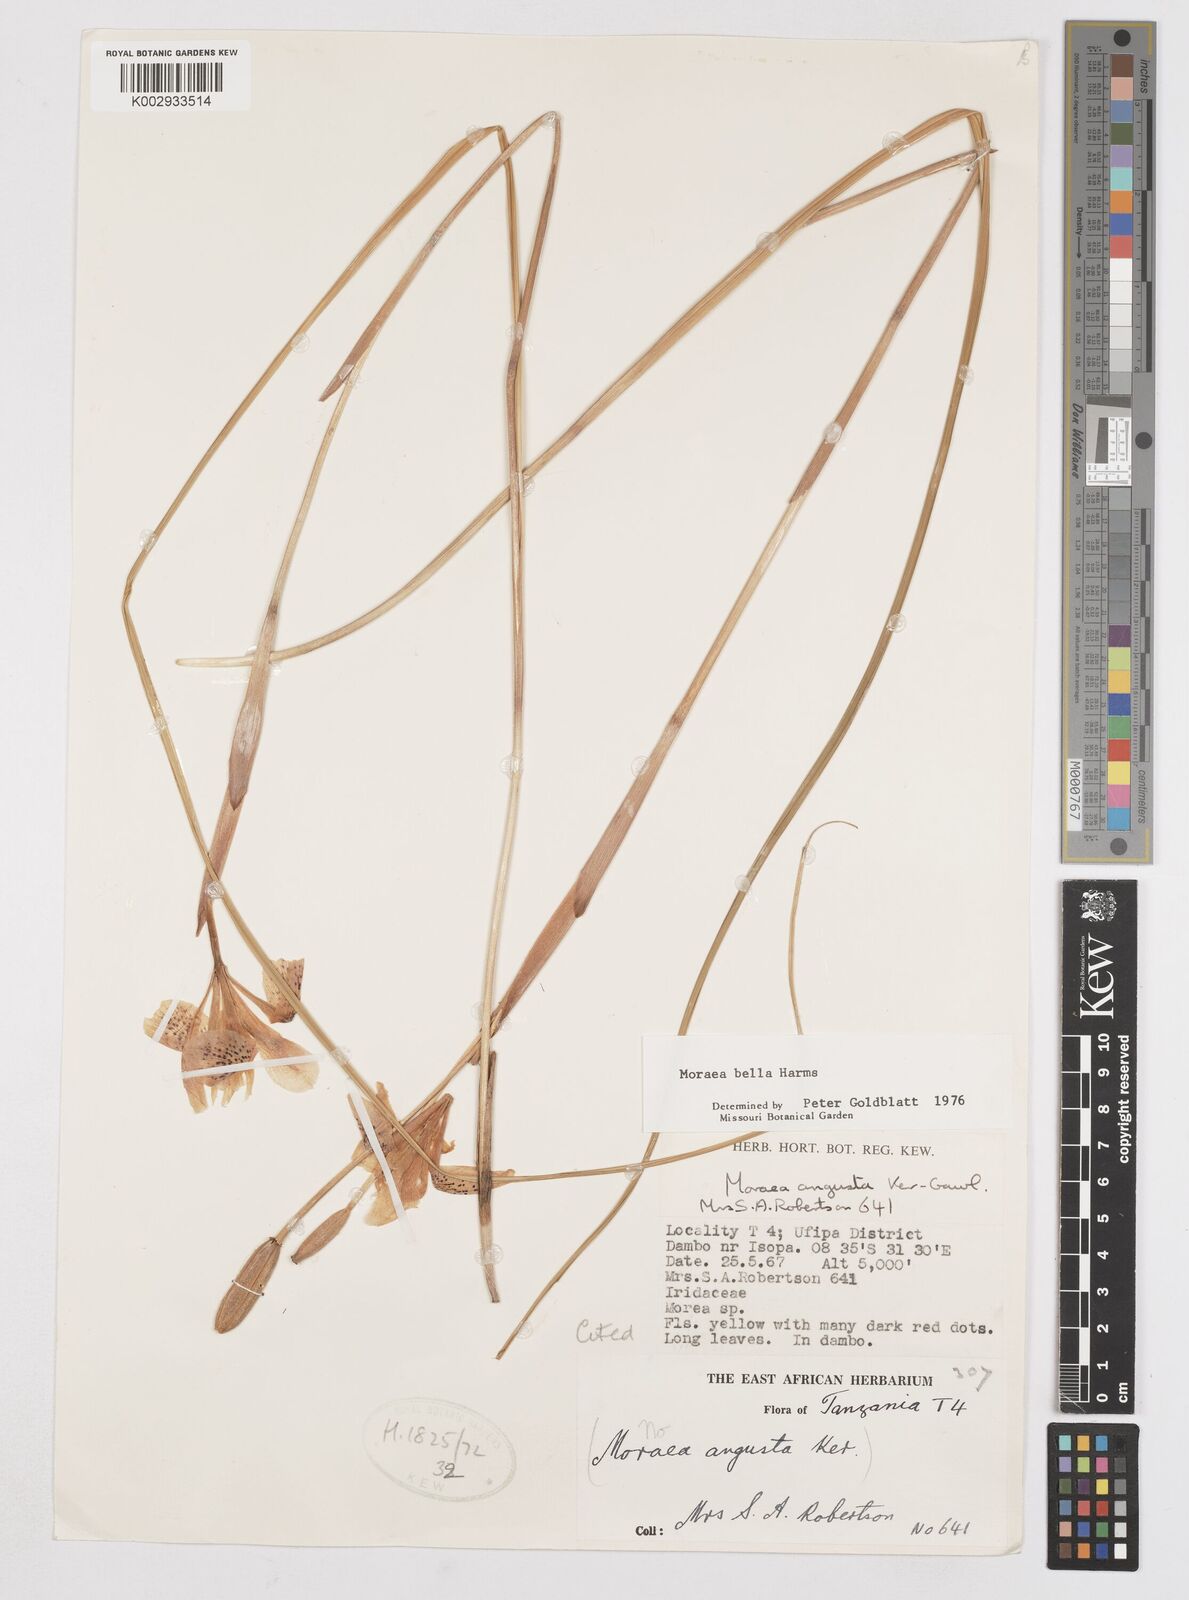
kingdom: Plantae
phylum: Tracheophyta
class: Liliopsida
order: Asparagales
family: Iridaceae
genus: Moraea
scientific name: Moraea bella
